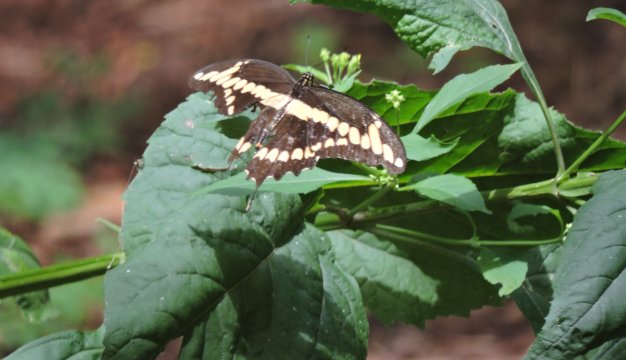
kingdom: Animalia
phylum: Arthropoda
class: Insecta
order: Lepidoptera
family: Papilionidae
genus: Papilio
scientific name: Papilio cresphontes
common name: Eastern Giant Swallowtail
